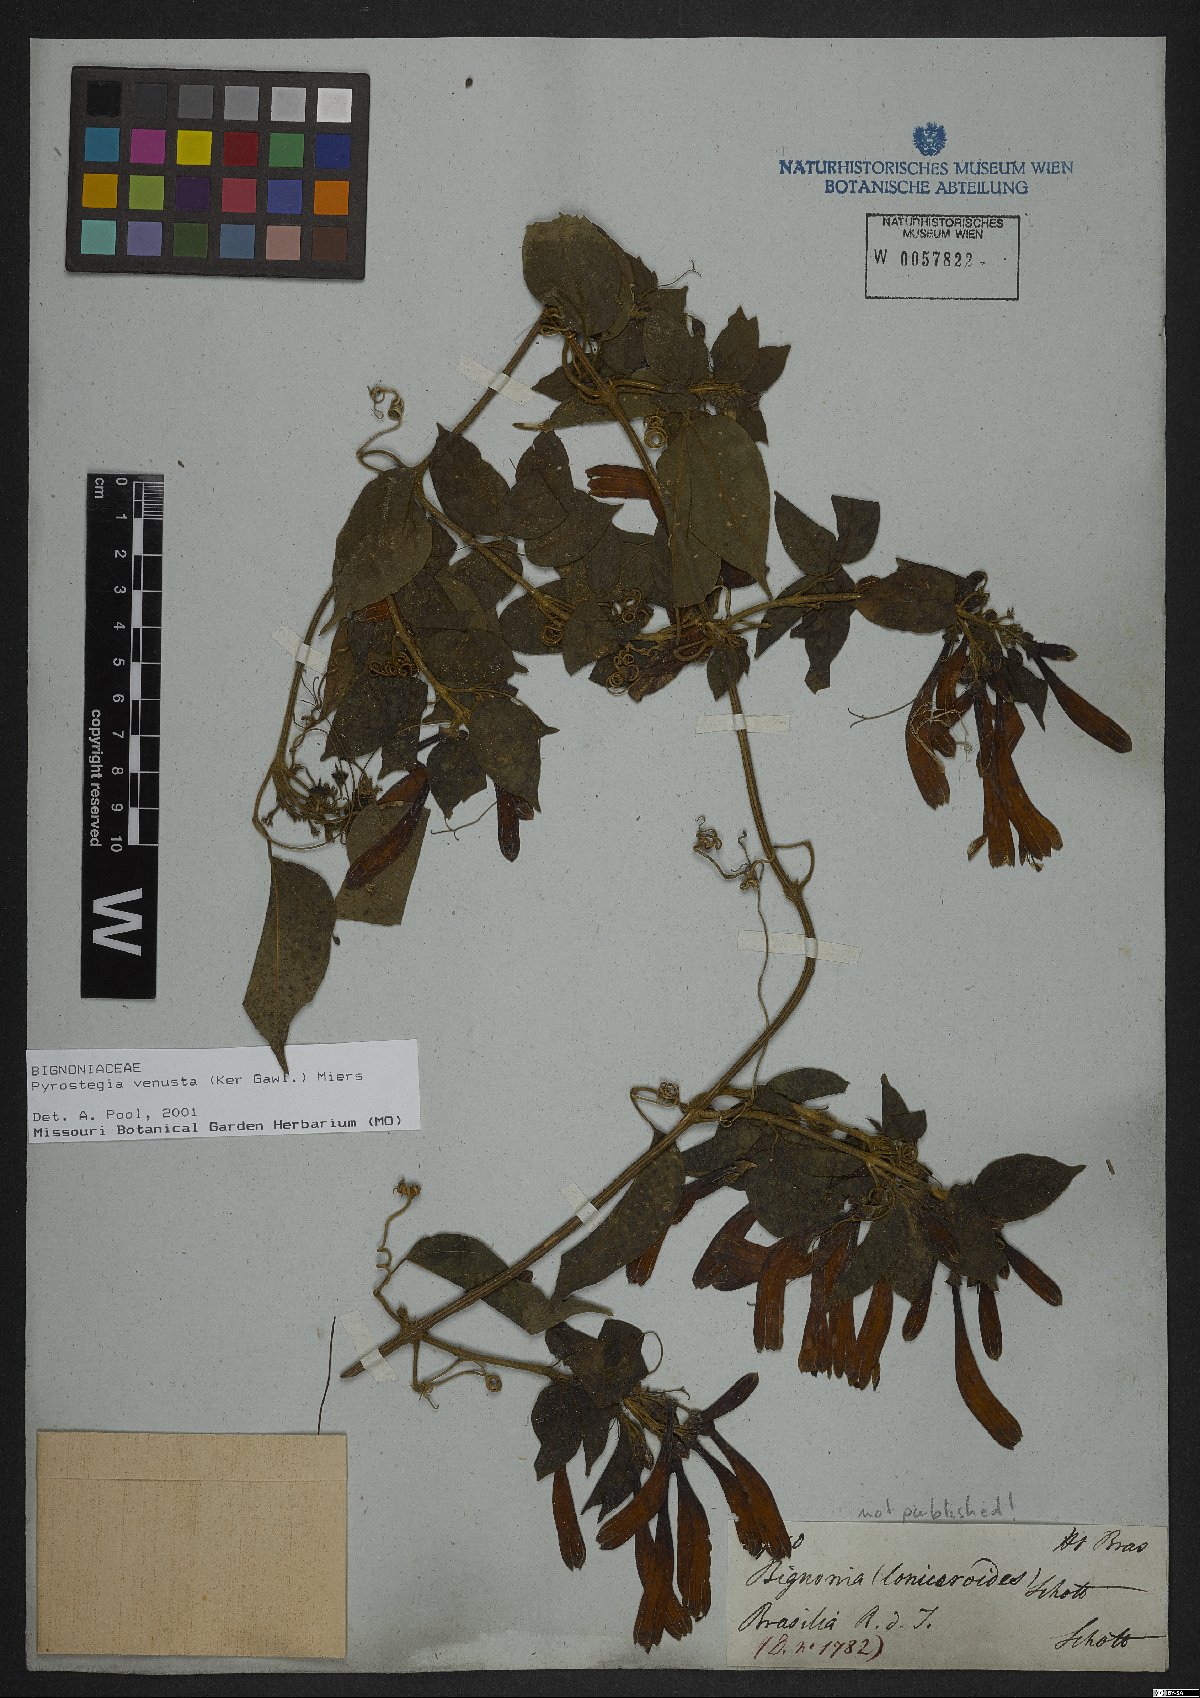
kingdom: Plantae
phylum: Tracheophyta
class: Magnoliopsida
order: Lamiales
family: Bignoniaceae
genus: Pyrostegia
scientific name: Pyrostegia venusta
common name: Flamevine
